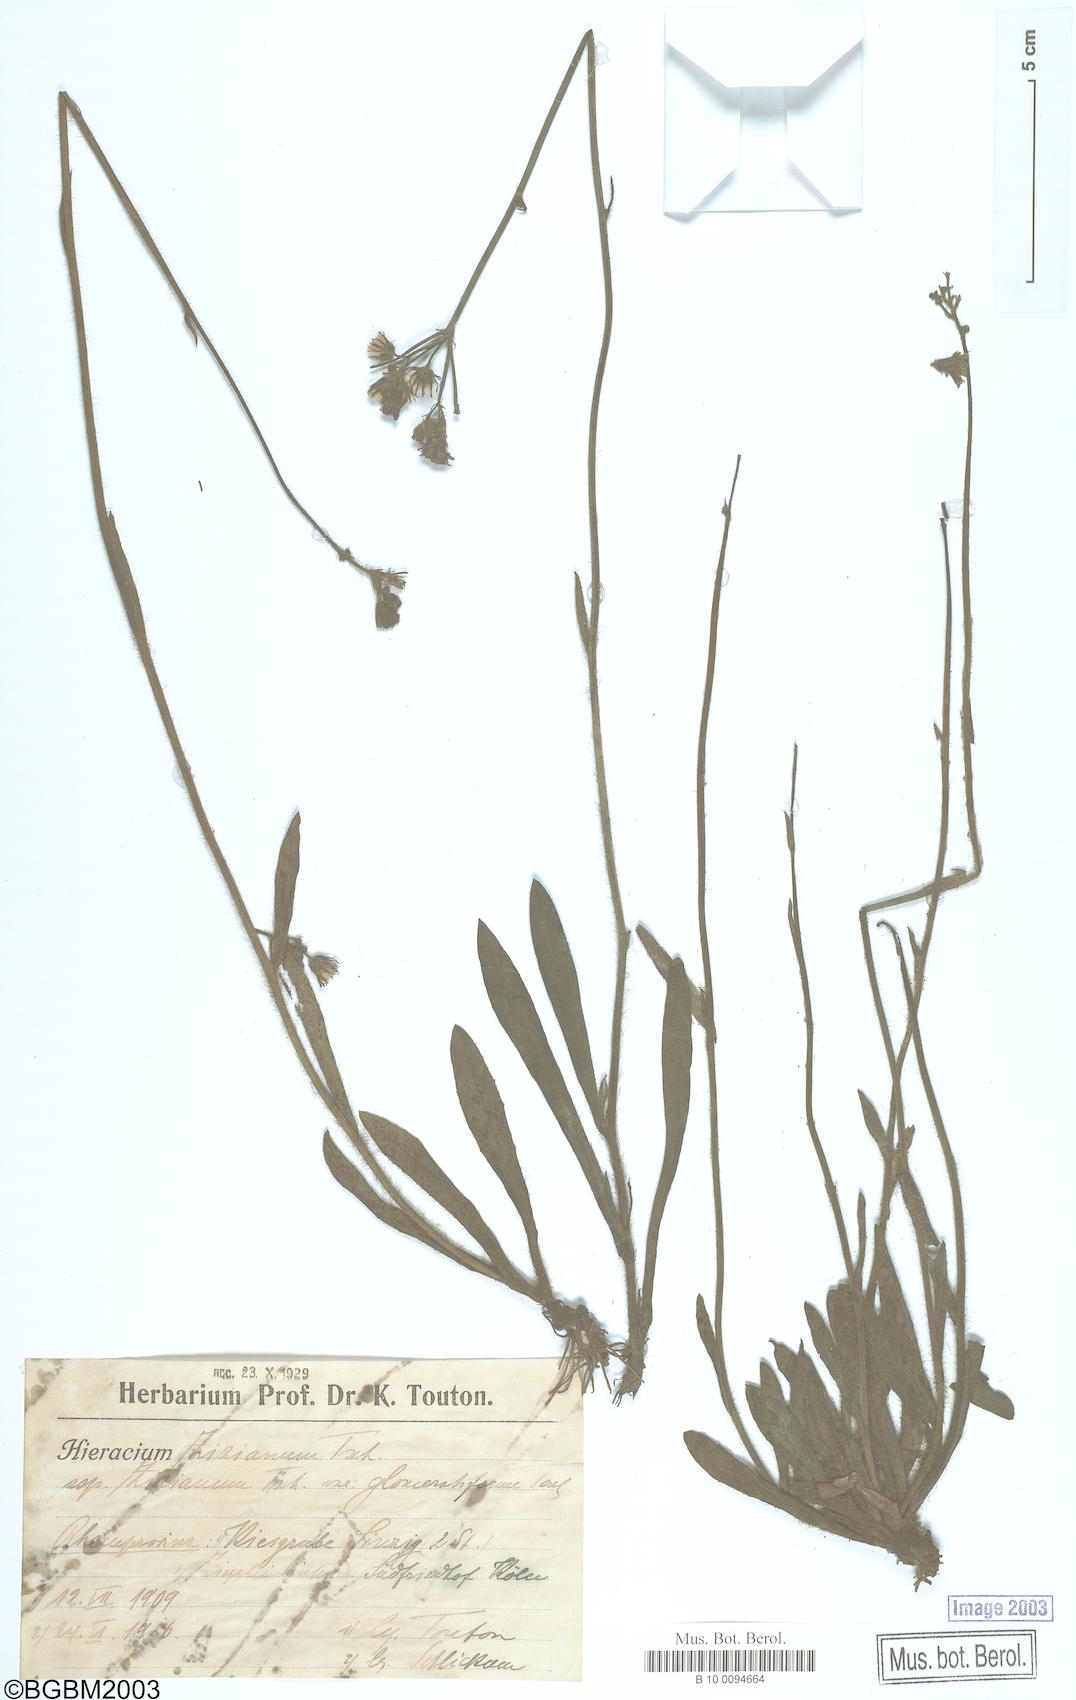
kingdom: Plantae
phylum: Tracheophyta
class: Magnoliopsida
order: Asterales
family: Asteraceae
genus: Pilosella
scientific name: Pilosella ziziana
